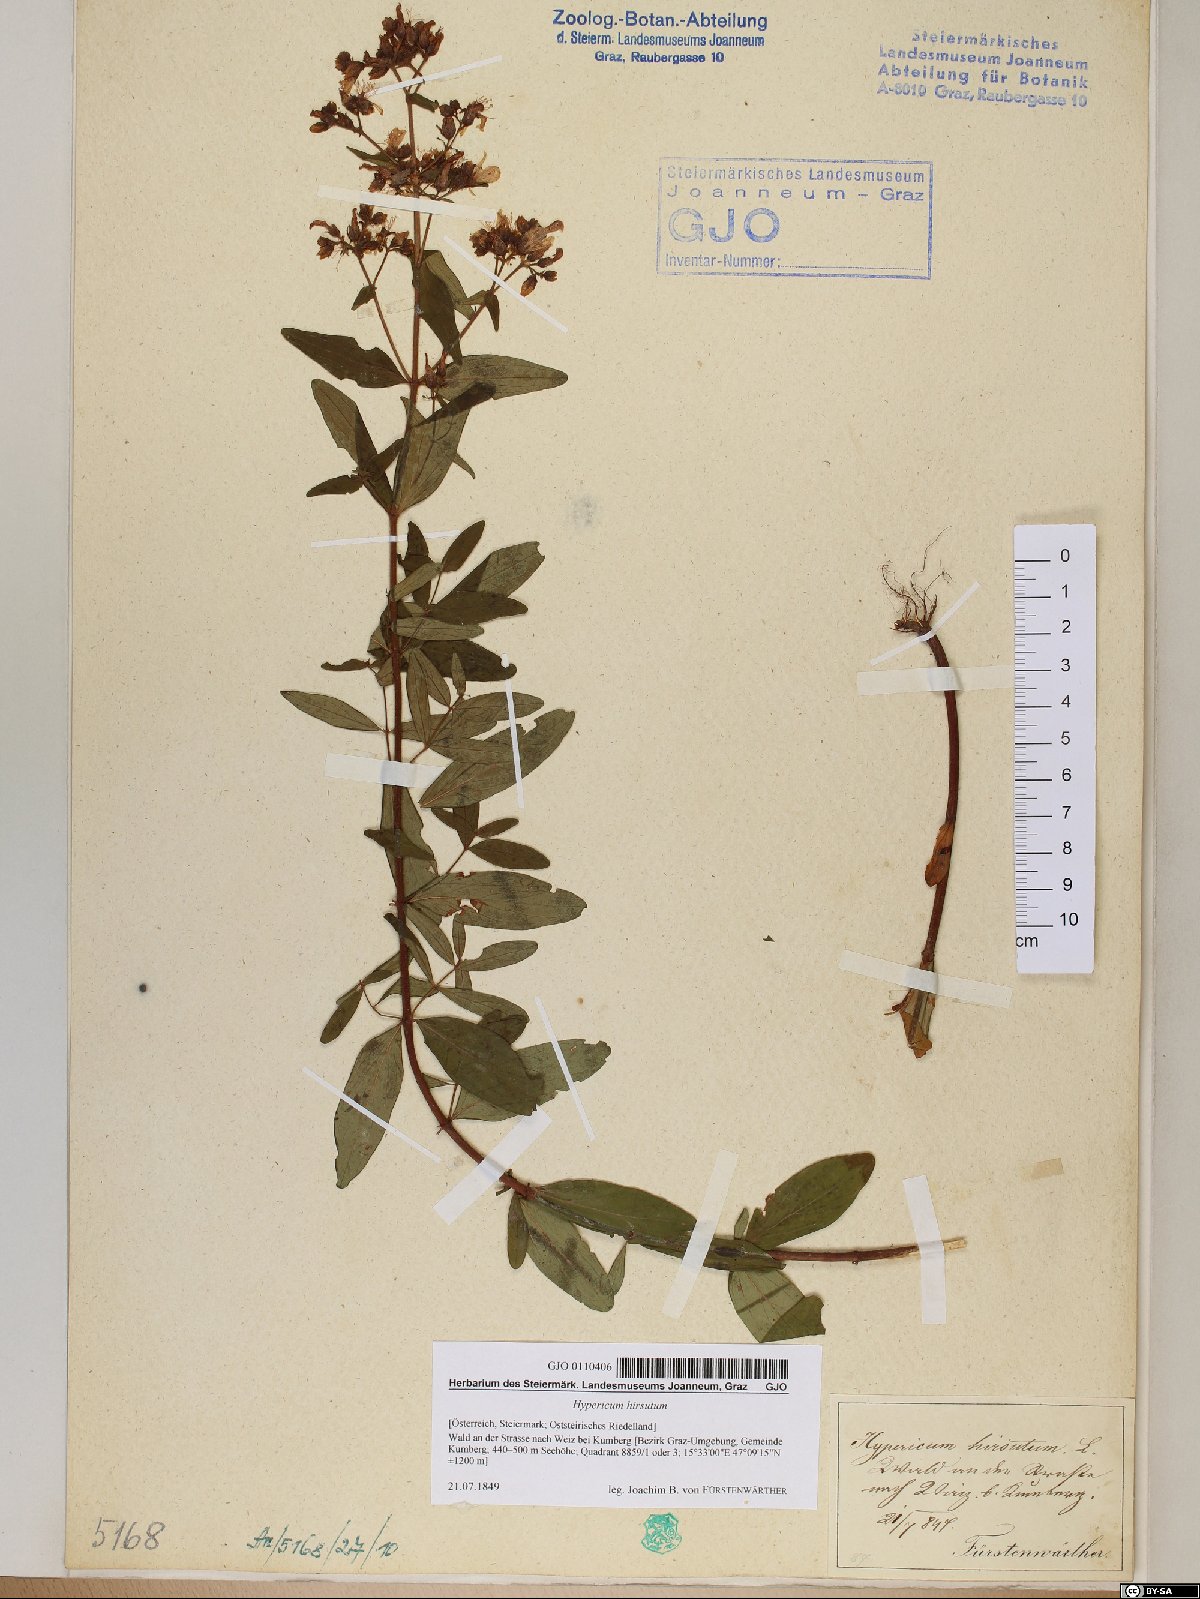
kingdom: Plantae
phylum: Tracheophyta
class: Magnoliopsida
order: Malpighiales
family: Hypericaceae
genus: Hypericum
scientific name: Hypericum hirsutum
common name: Hairy st. john's-wort
